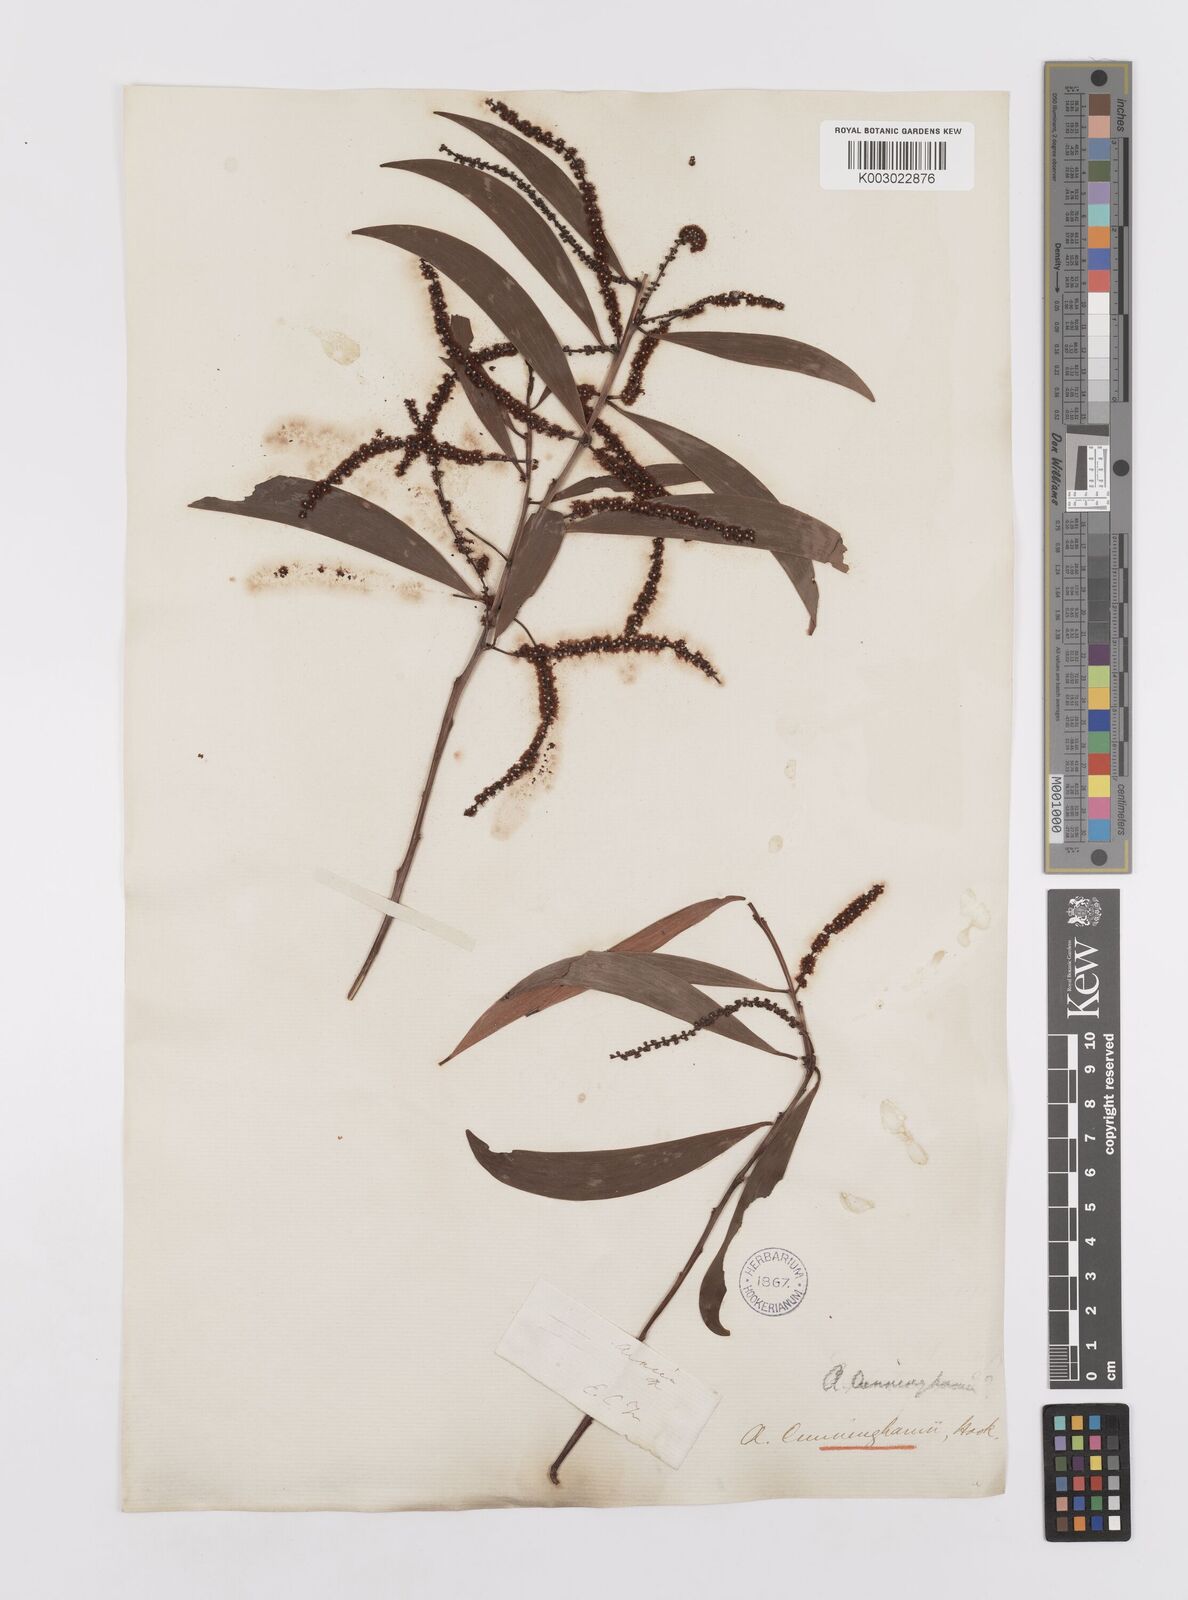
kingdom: Plantae
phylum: Tracheophyta
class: Magnoliopsida
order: Fabales
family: Fabaceae
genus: Acacia
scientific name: Acacia longispicata
